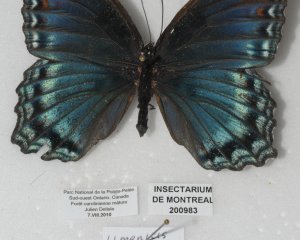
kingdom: Animalia
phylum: Arthropoda
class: Insecta
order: Lepidoptera
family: Nymphalidae
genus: Limenitis
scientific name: Limenitis astyanax
